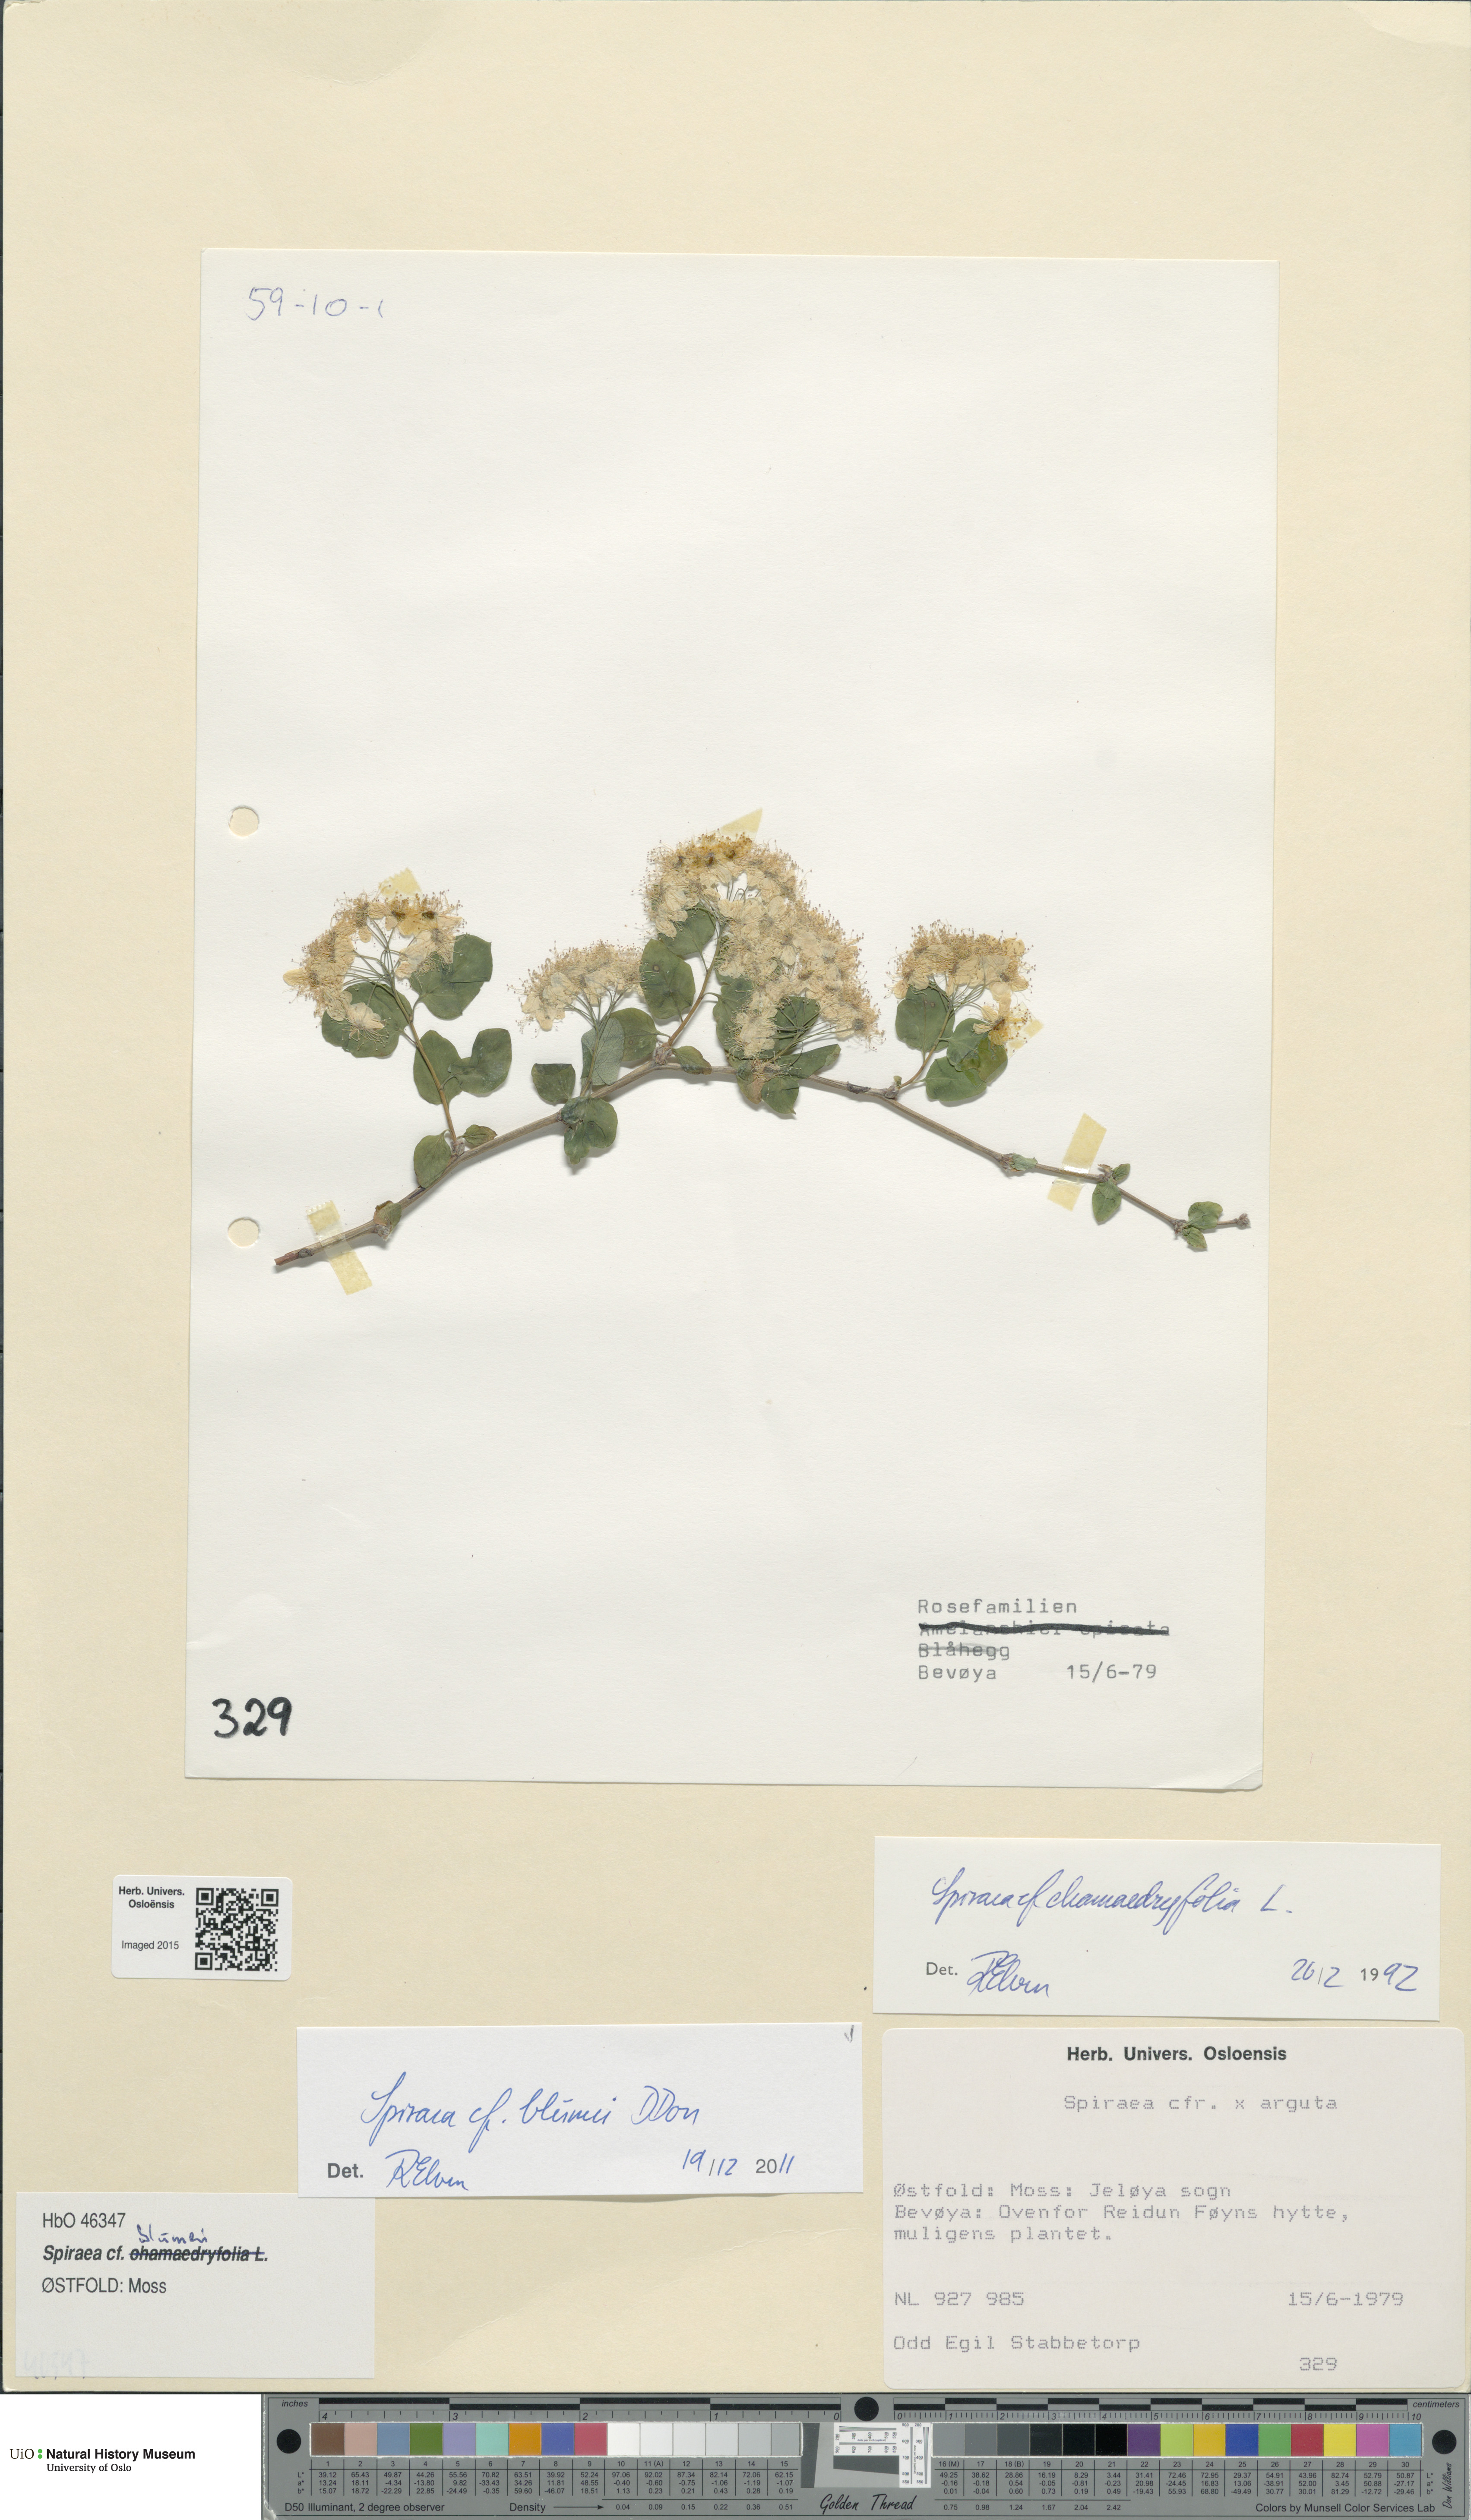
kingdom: Plantae
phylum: Tracheophyta
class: Magnoliopsida
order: Rosales
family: Rosaceae
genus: Spiraea
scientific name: Spiraea blumei
